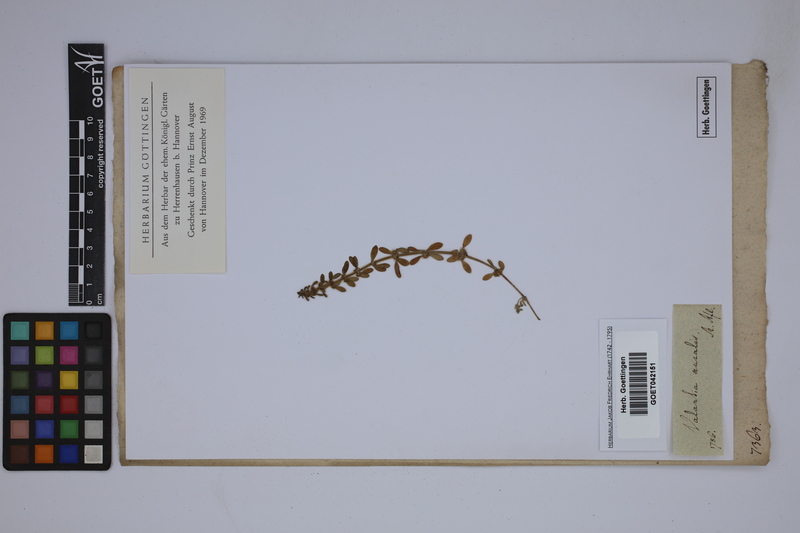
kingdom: Plantae
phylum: Tracheophyta
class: Magnoliopsida
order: Gentianales
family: Rubiaceae
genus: Valantia
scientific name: Valantia muralis
